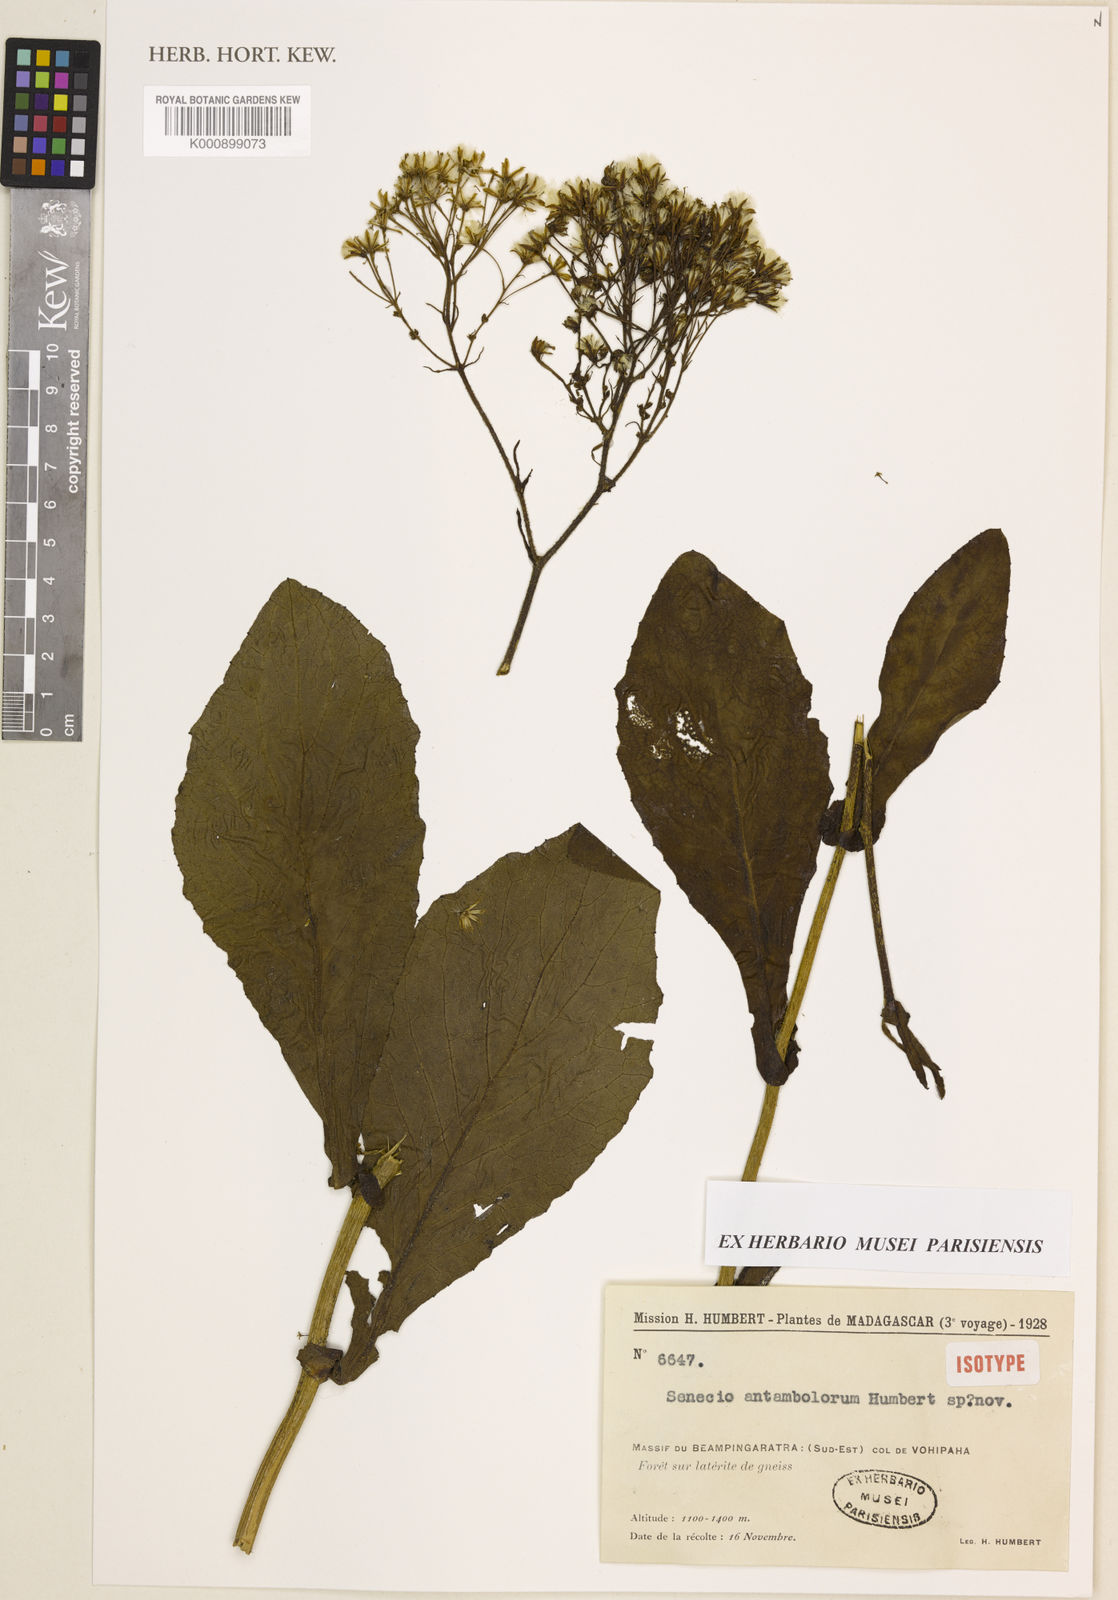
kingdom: Plantae
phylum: Tracheophyta
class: Magnoliopsida
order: Asterales
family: Asteraceae
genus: Senecio
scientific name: Senecio antambolorum
